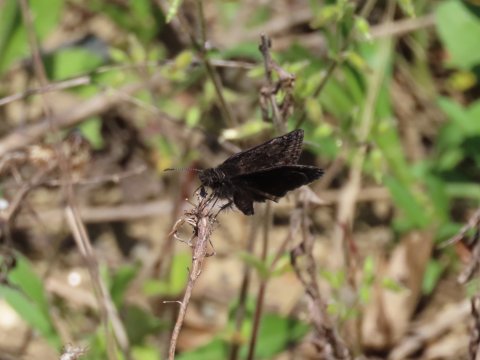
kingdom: Animalia
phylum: Arthropoda
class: Insecta
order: Lepidoptera
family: Hesperiidae
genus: Gesta
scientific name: Gesta
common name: Wild Indigo Duskywing
